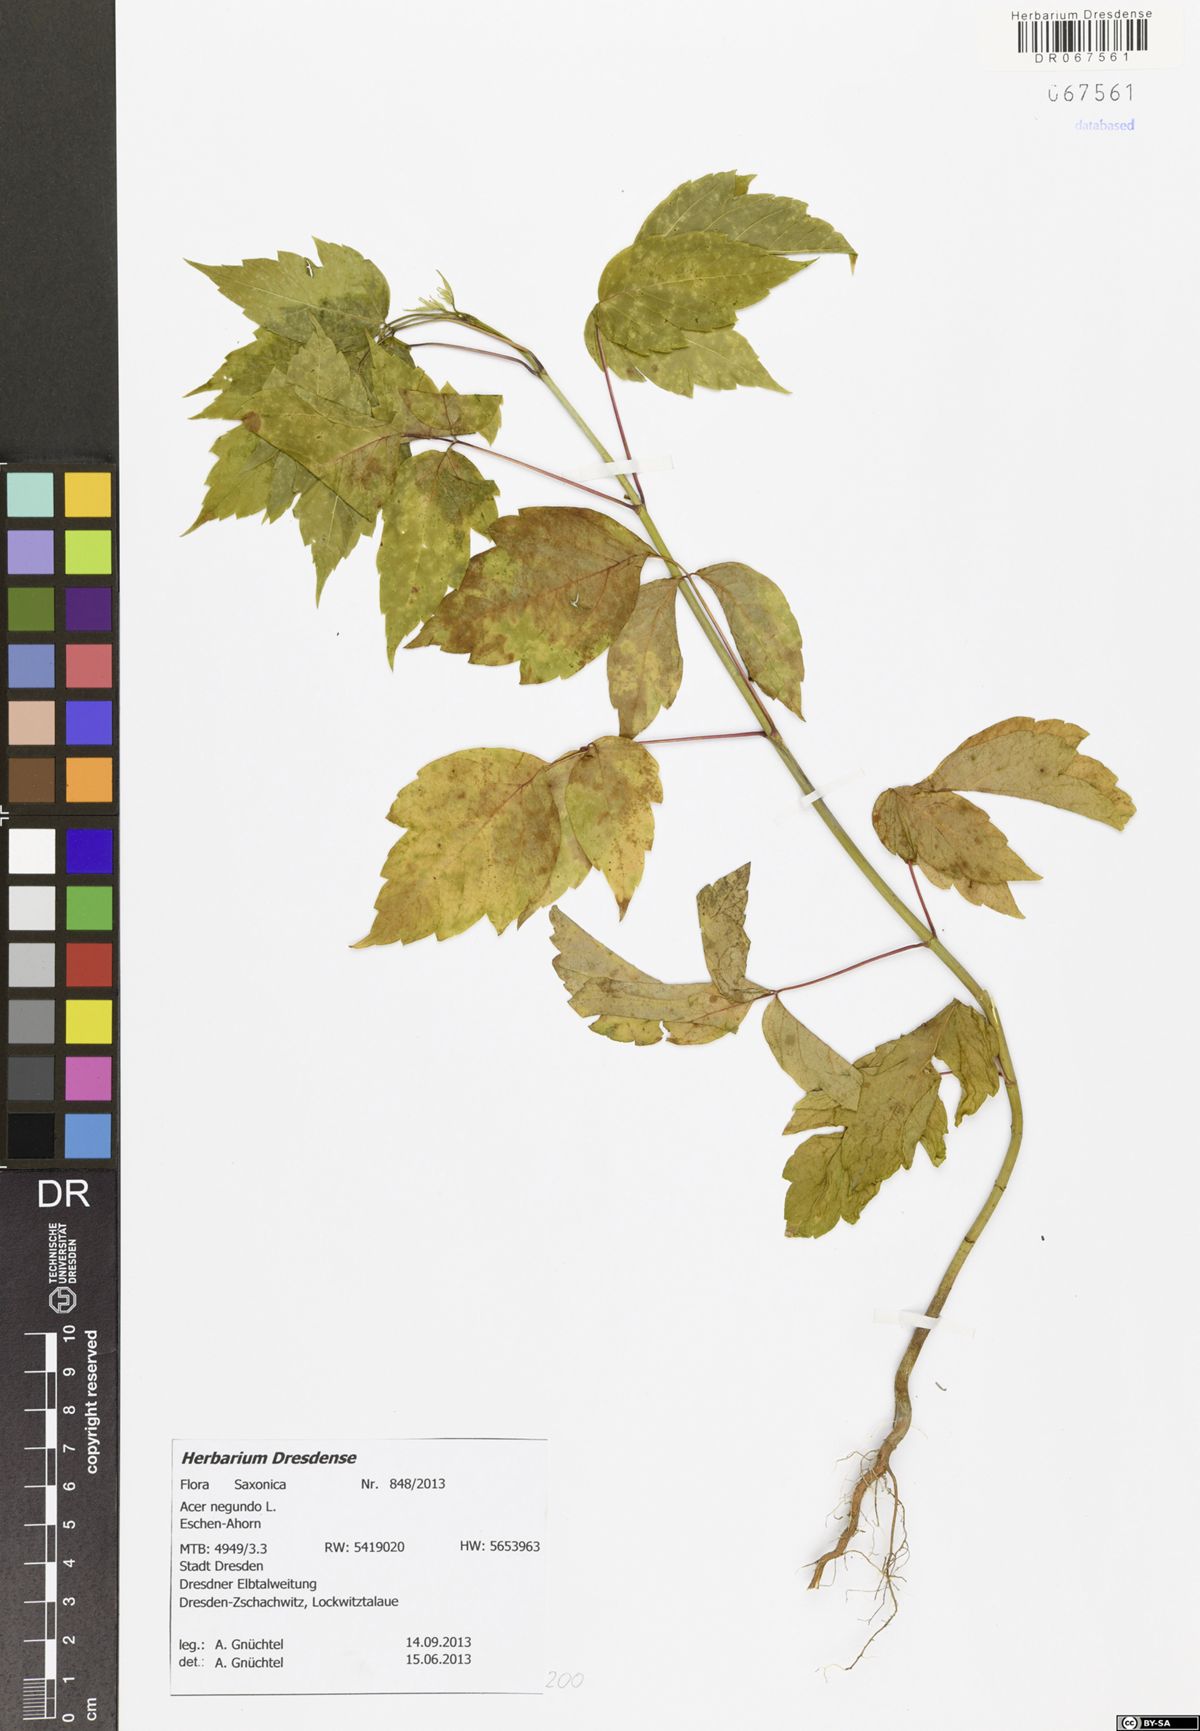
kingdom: Plantae
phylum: Tracheophyta
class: Magnoliopsida
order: Sapindales
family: Sapindaceae
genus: Acer
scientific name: Acer negundo
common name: Ashleaf maple
